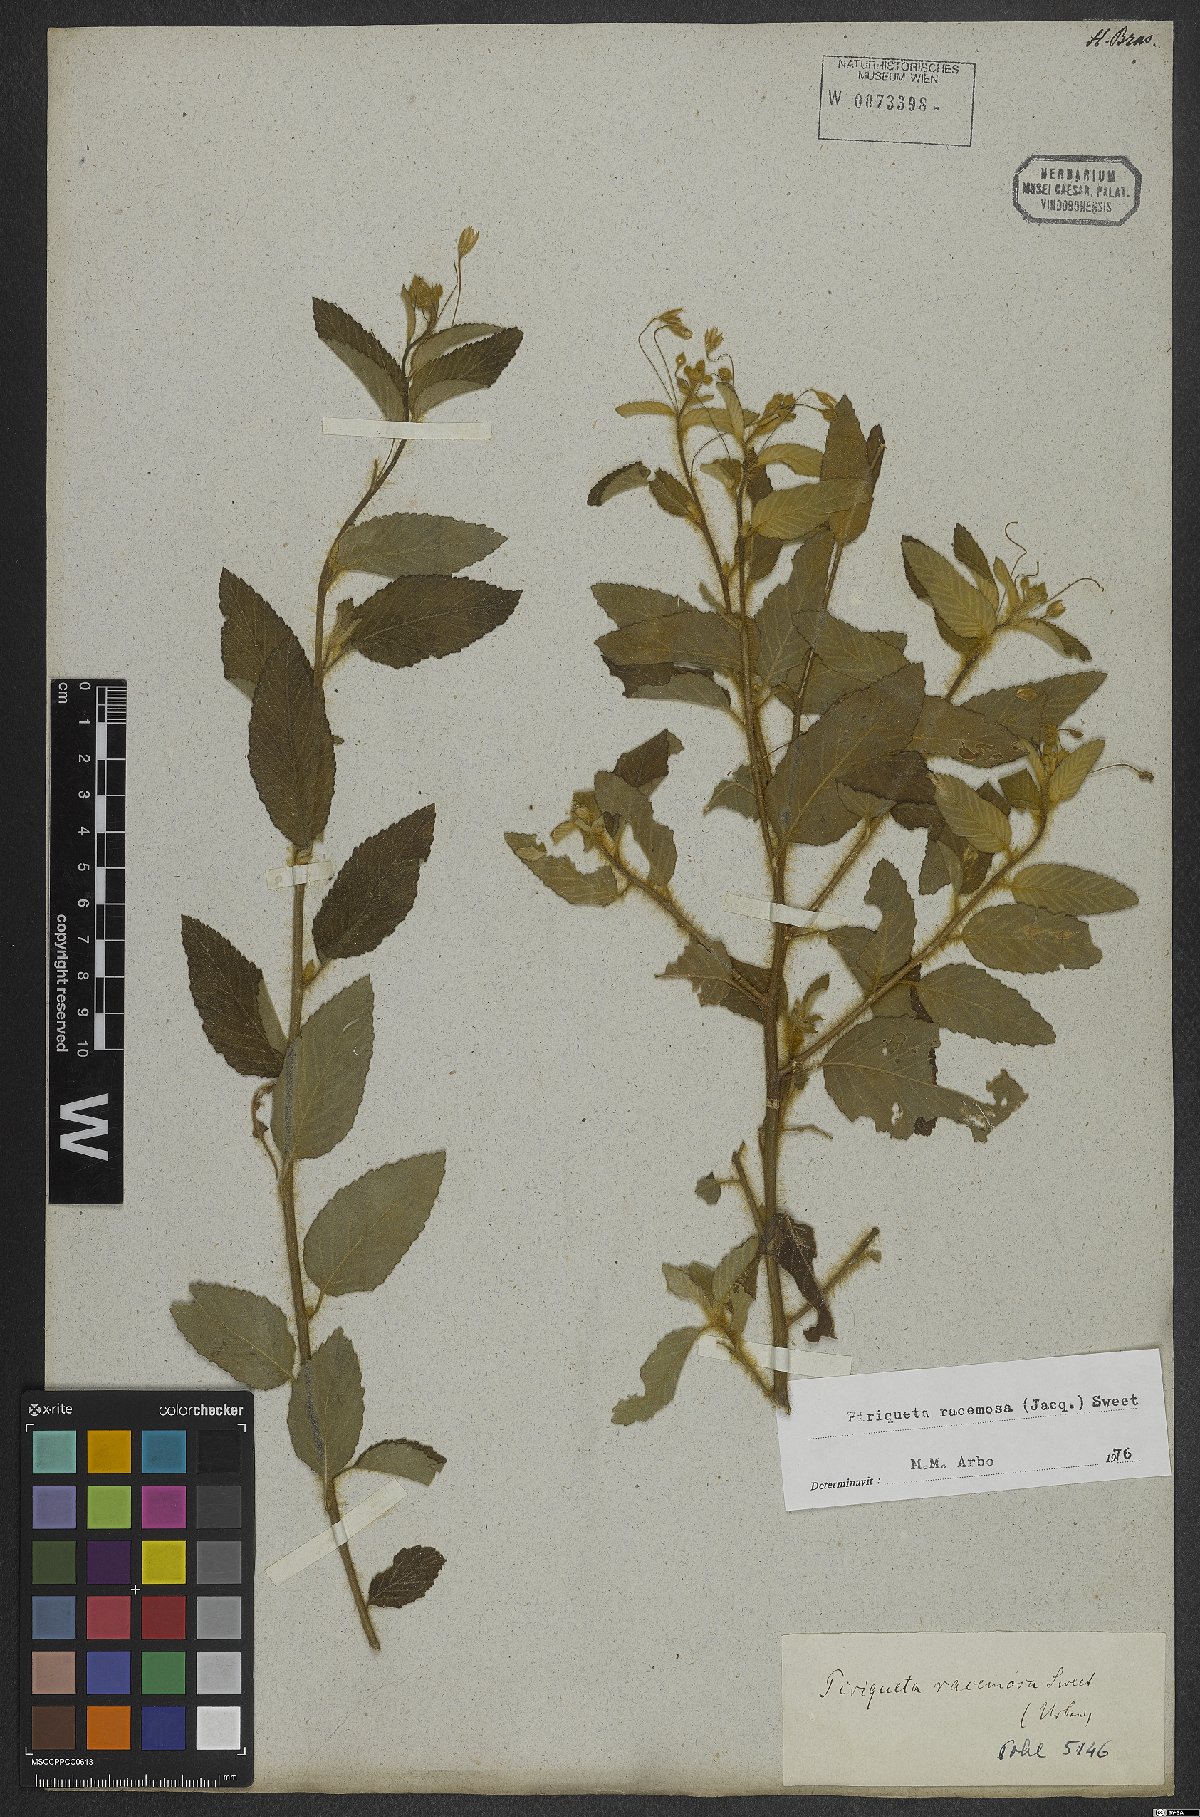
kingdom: Plantae
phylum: Tracheophyta
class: Magnoliopsida
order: Malpighiales
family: Turneraceae
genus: Piriqueta
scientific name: Piriqueta racemosa
